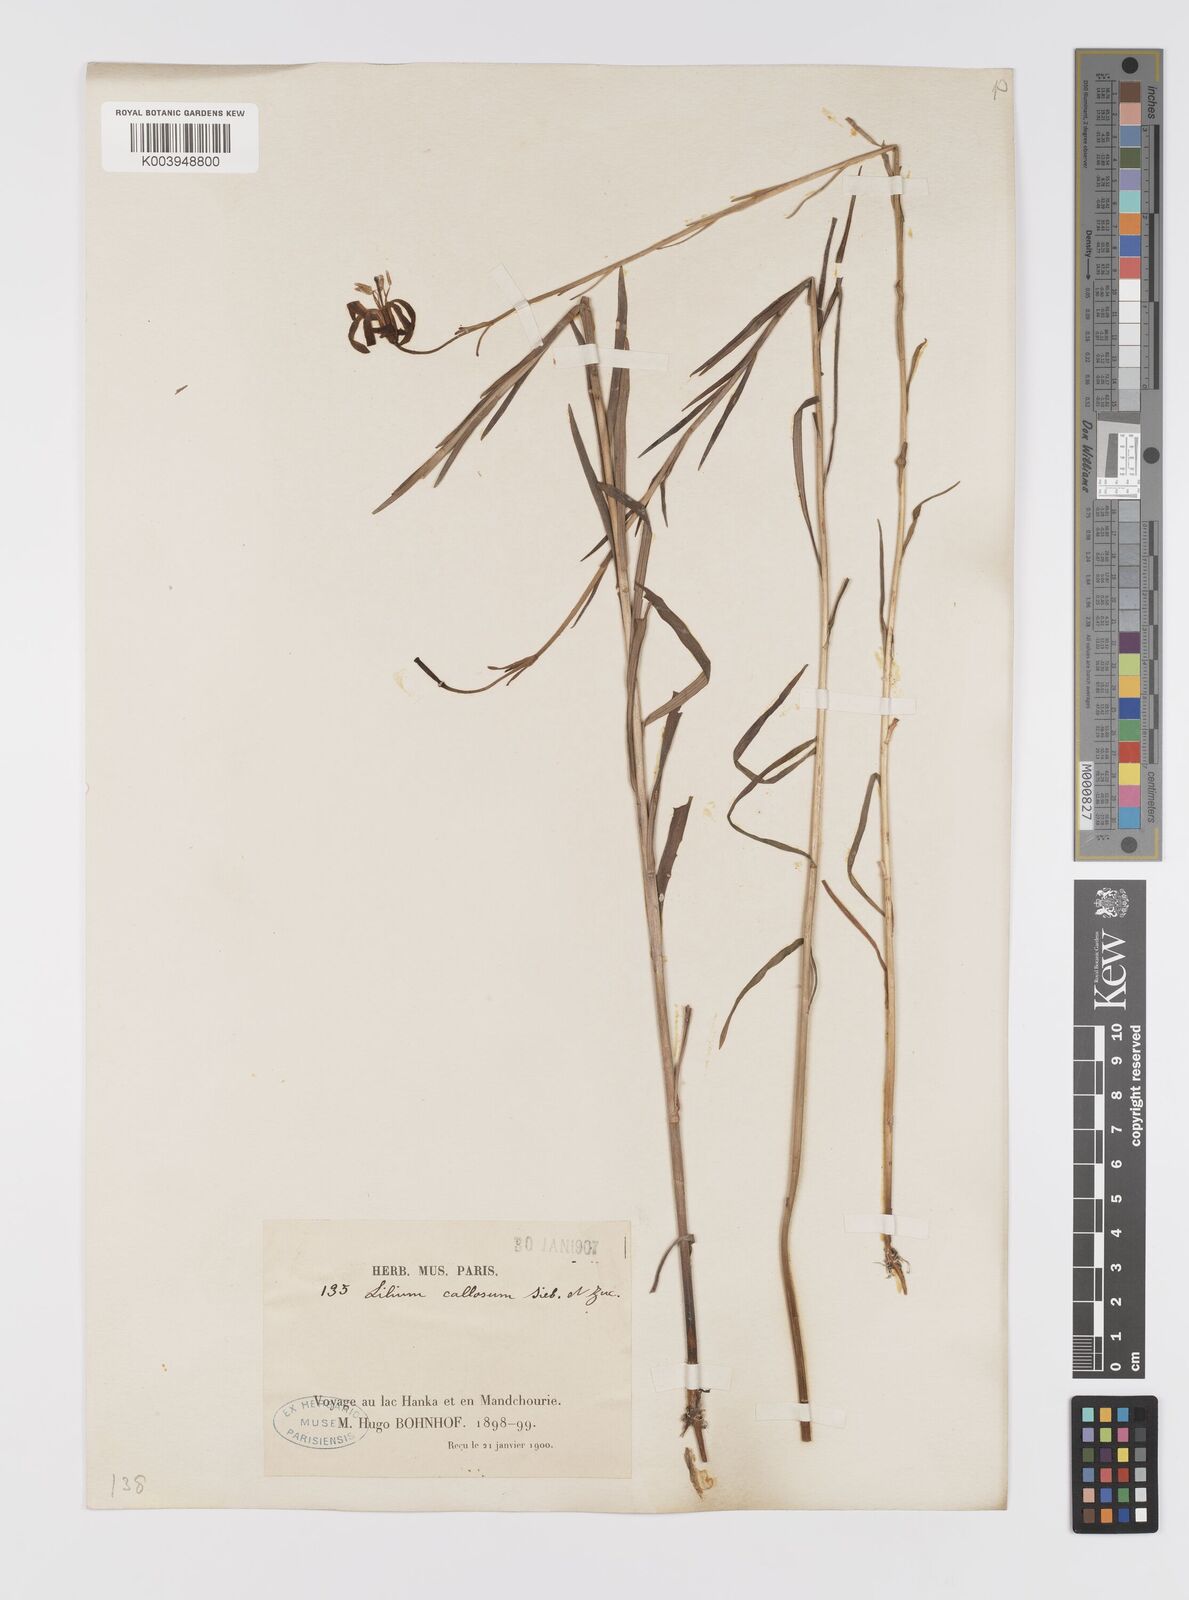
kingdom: Plantae
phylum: Tracheophyta
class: Liliopsida
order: Liliales
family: Liliaceae
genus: Lilium
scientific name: Lilium callosum
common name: Slim-stem lily
